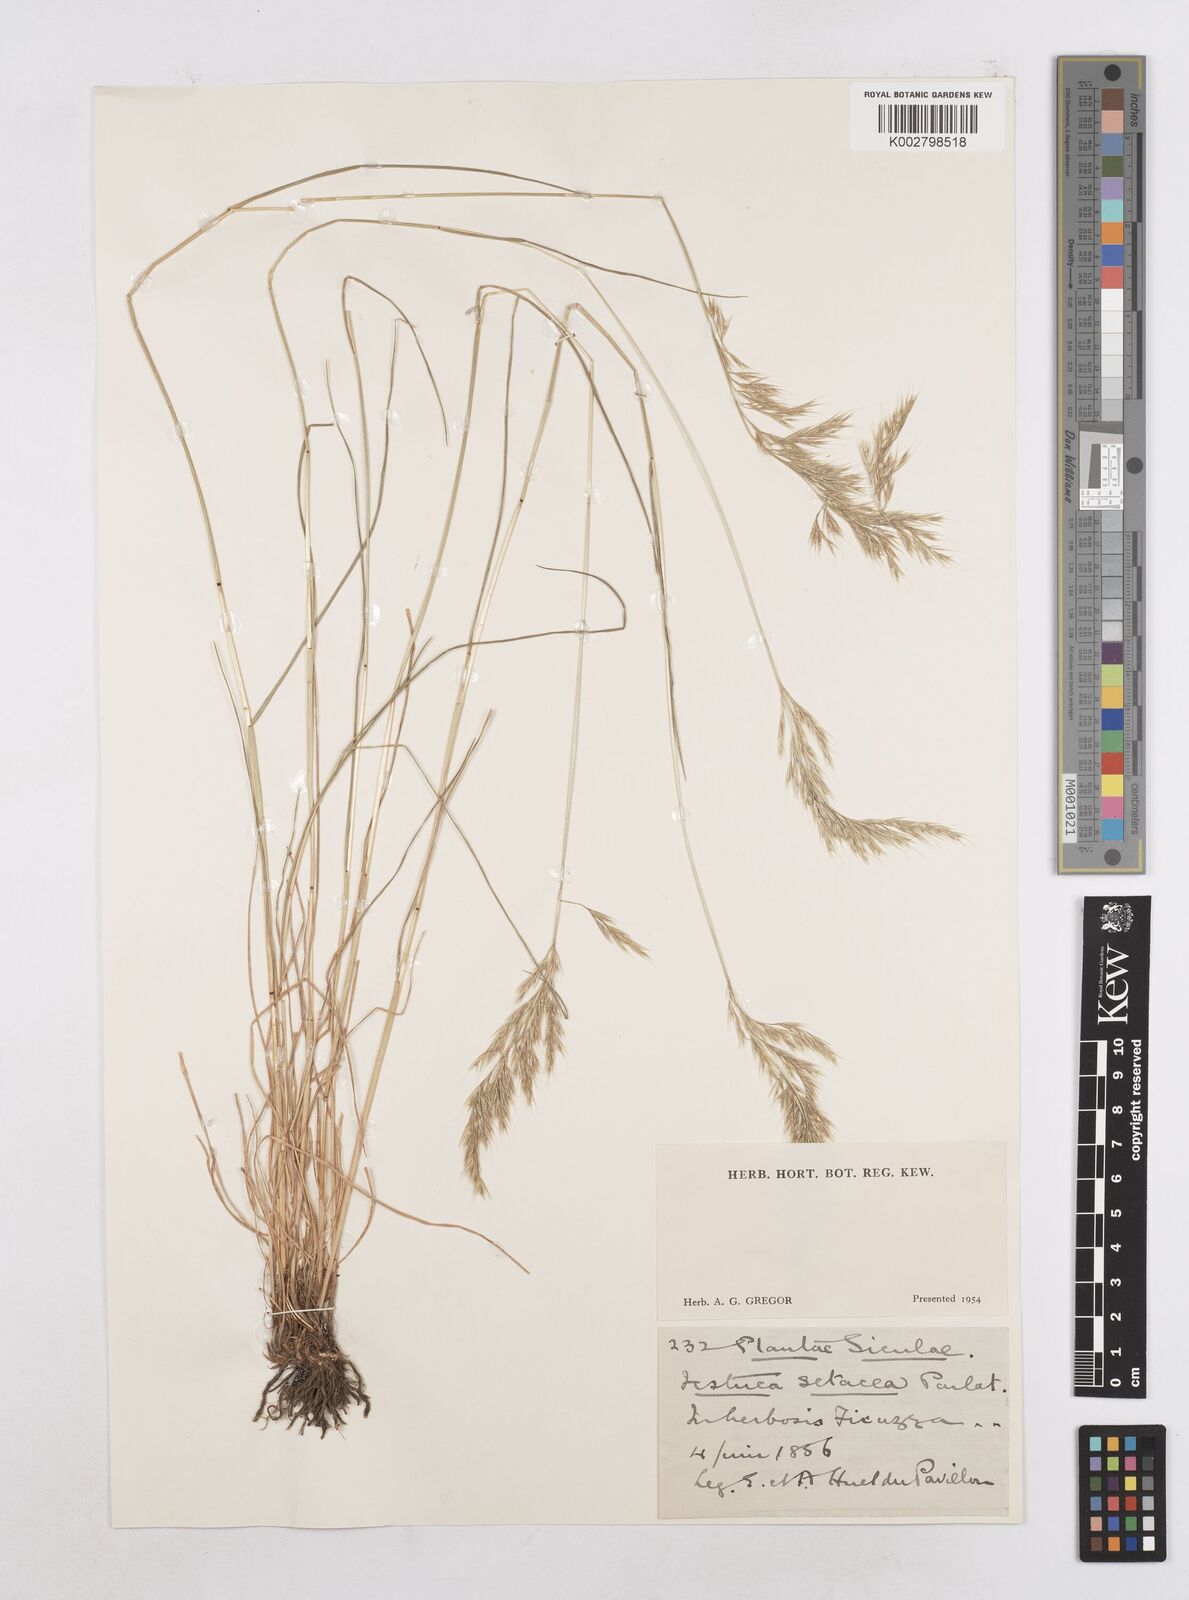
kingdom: Plantae
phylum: Tracheophyta
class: Liliopsida
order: Poales
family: Poaceae
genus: Festuca
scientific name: Festuca sicula
